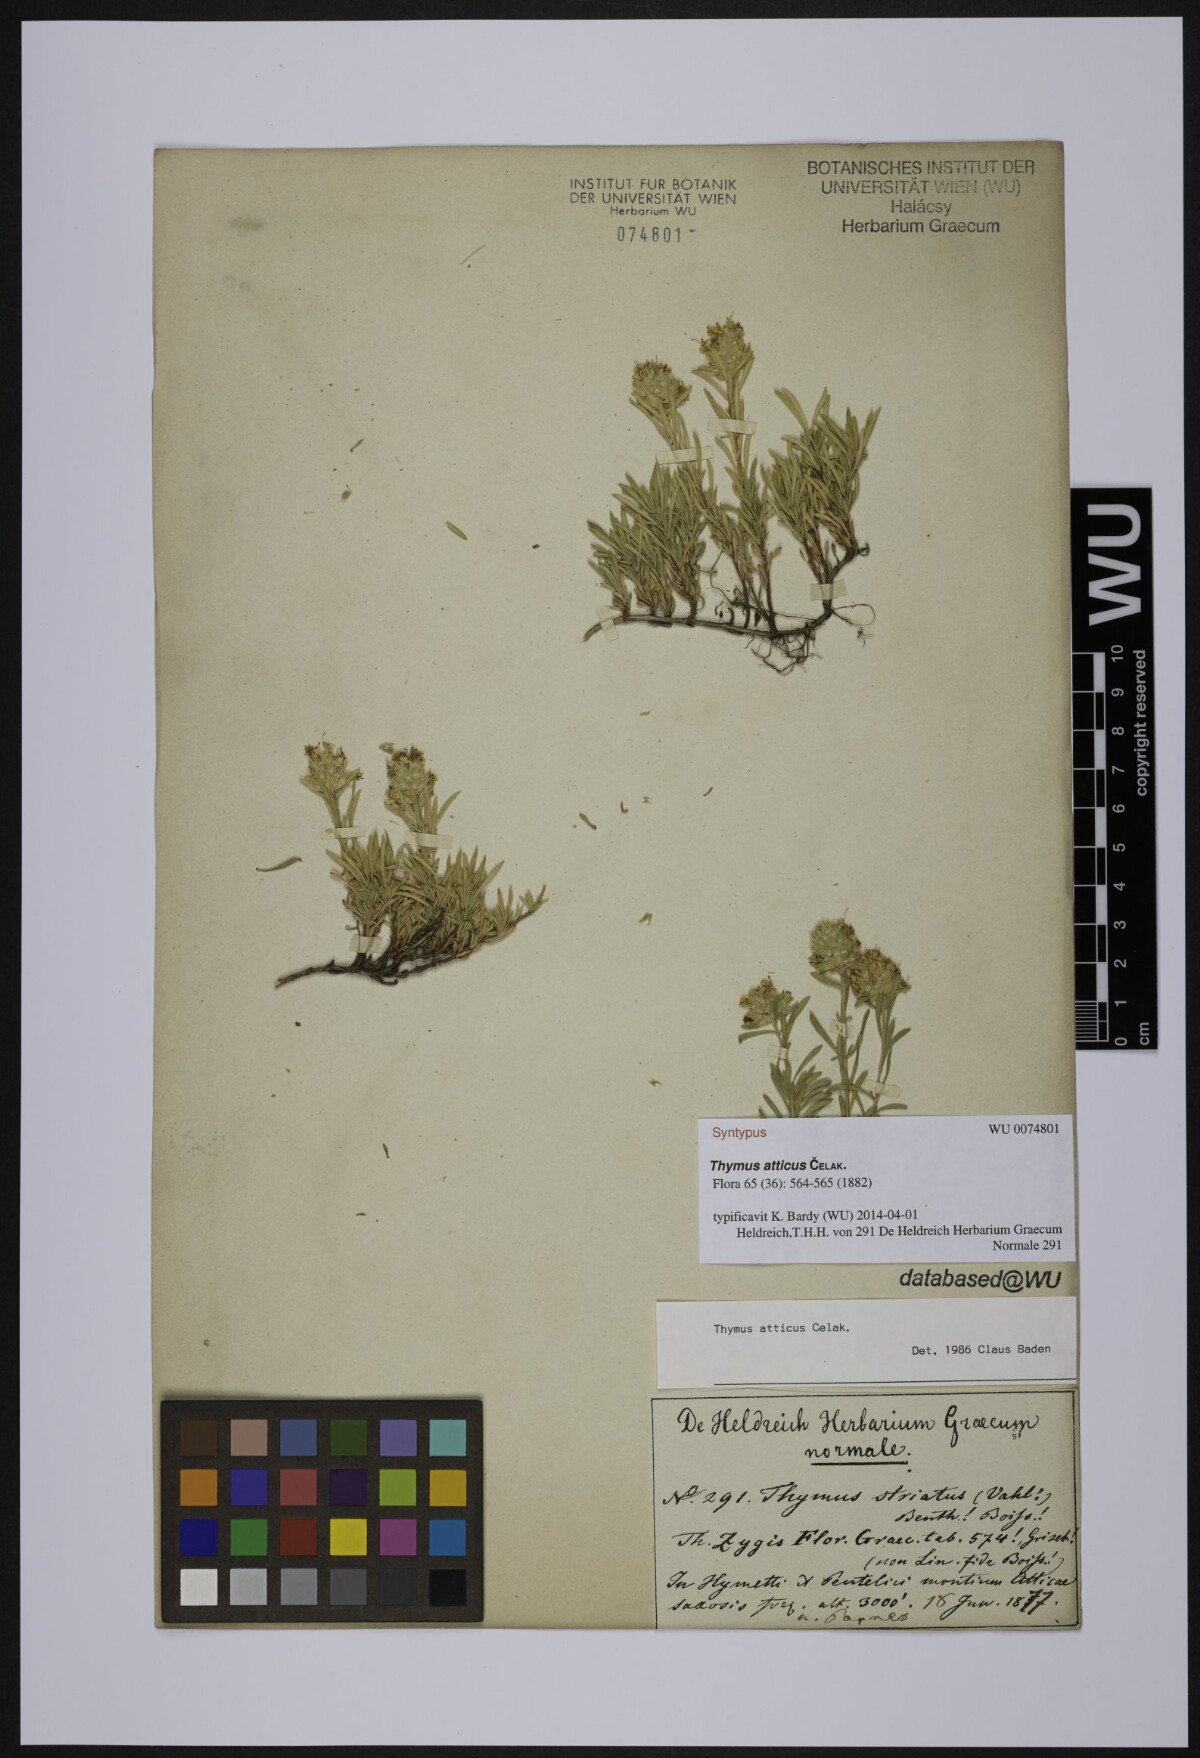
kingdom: Plantae
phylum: Tracheophyta
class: Magnoliopsida
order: Lamiales
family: Lamiaceae
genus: Thymus
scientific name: Thymus atticus
